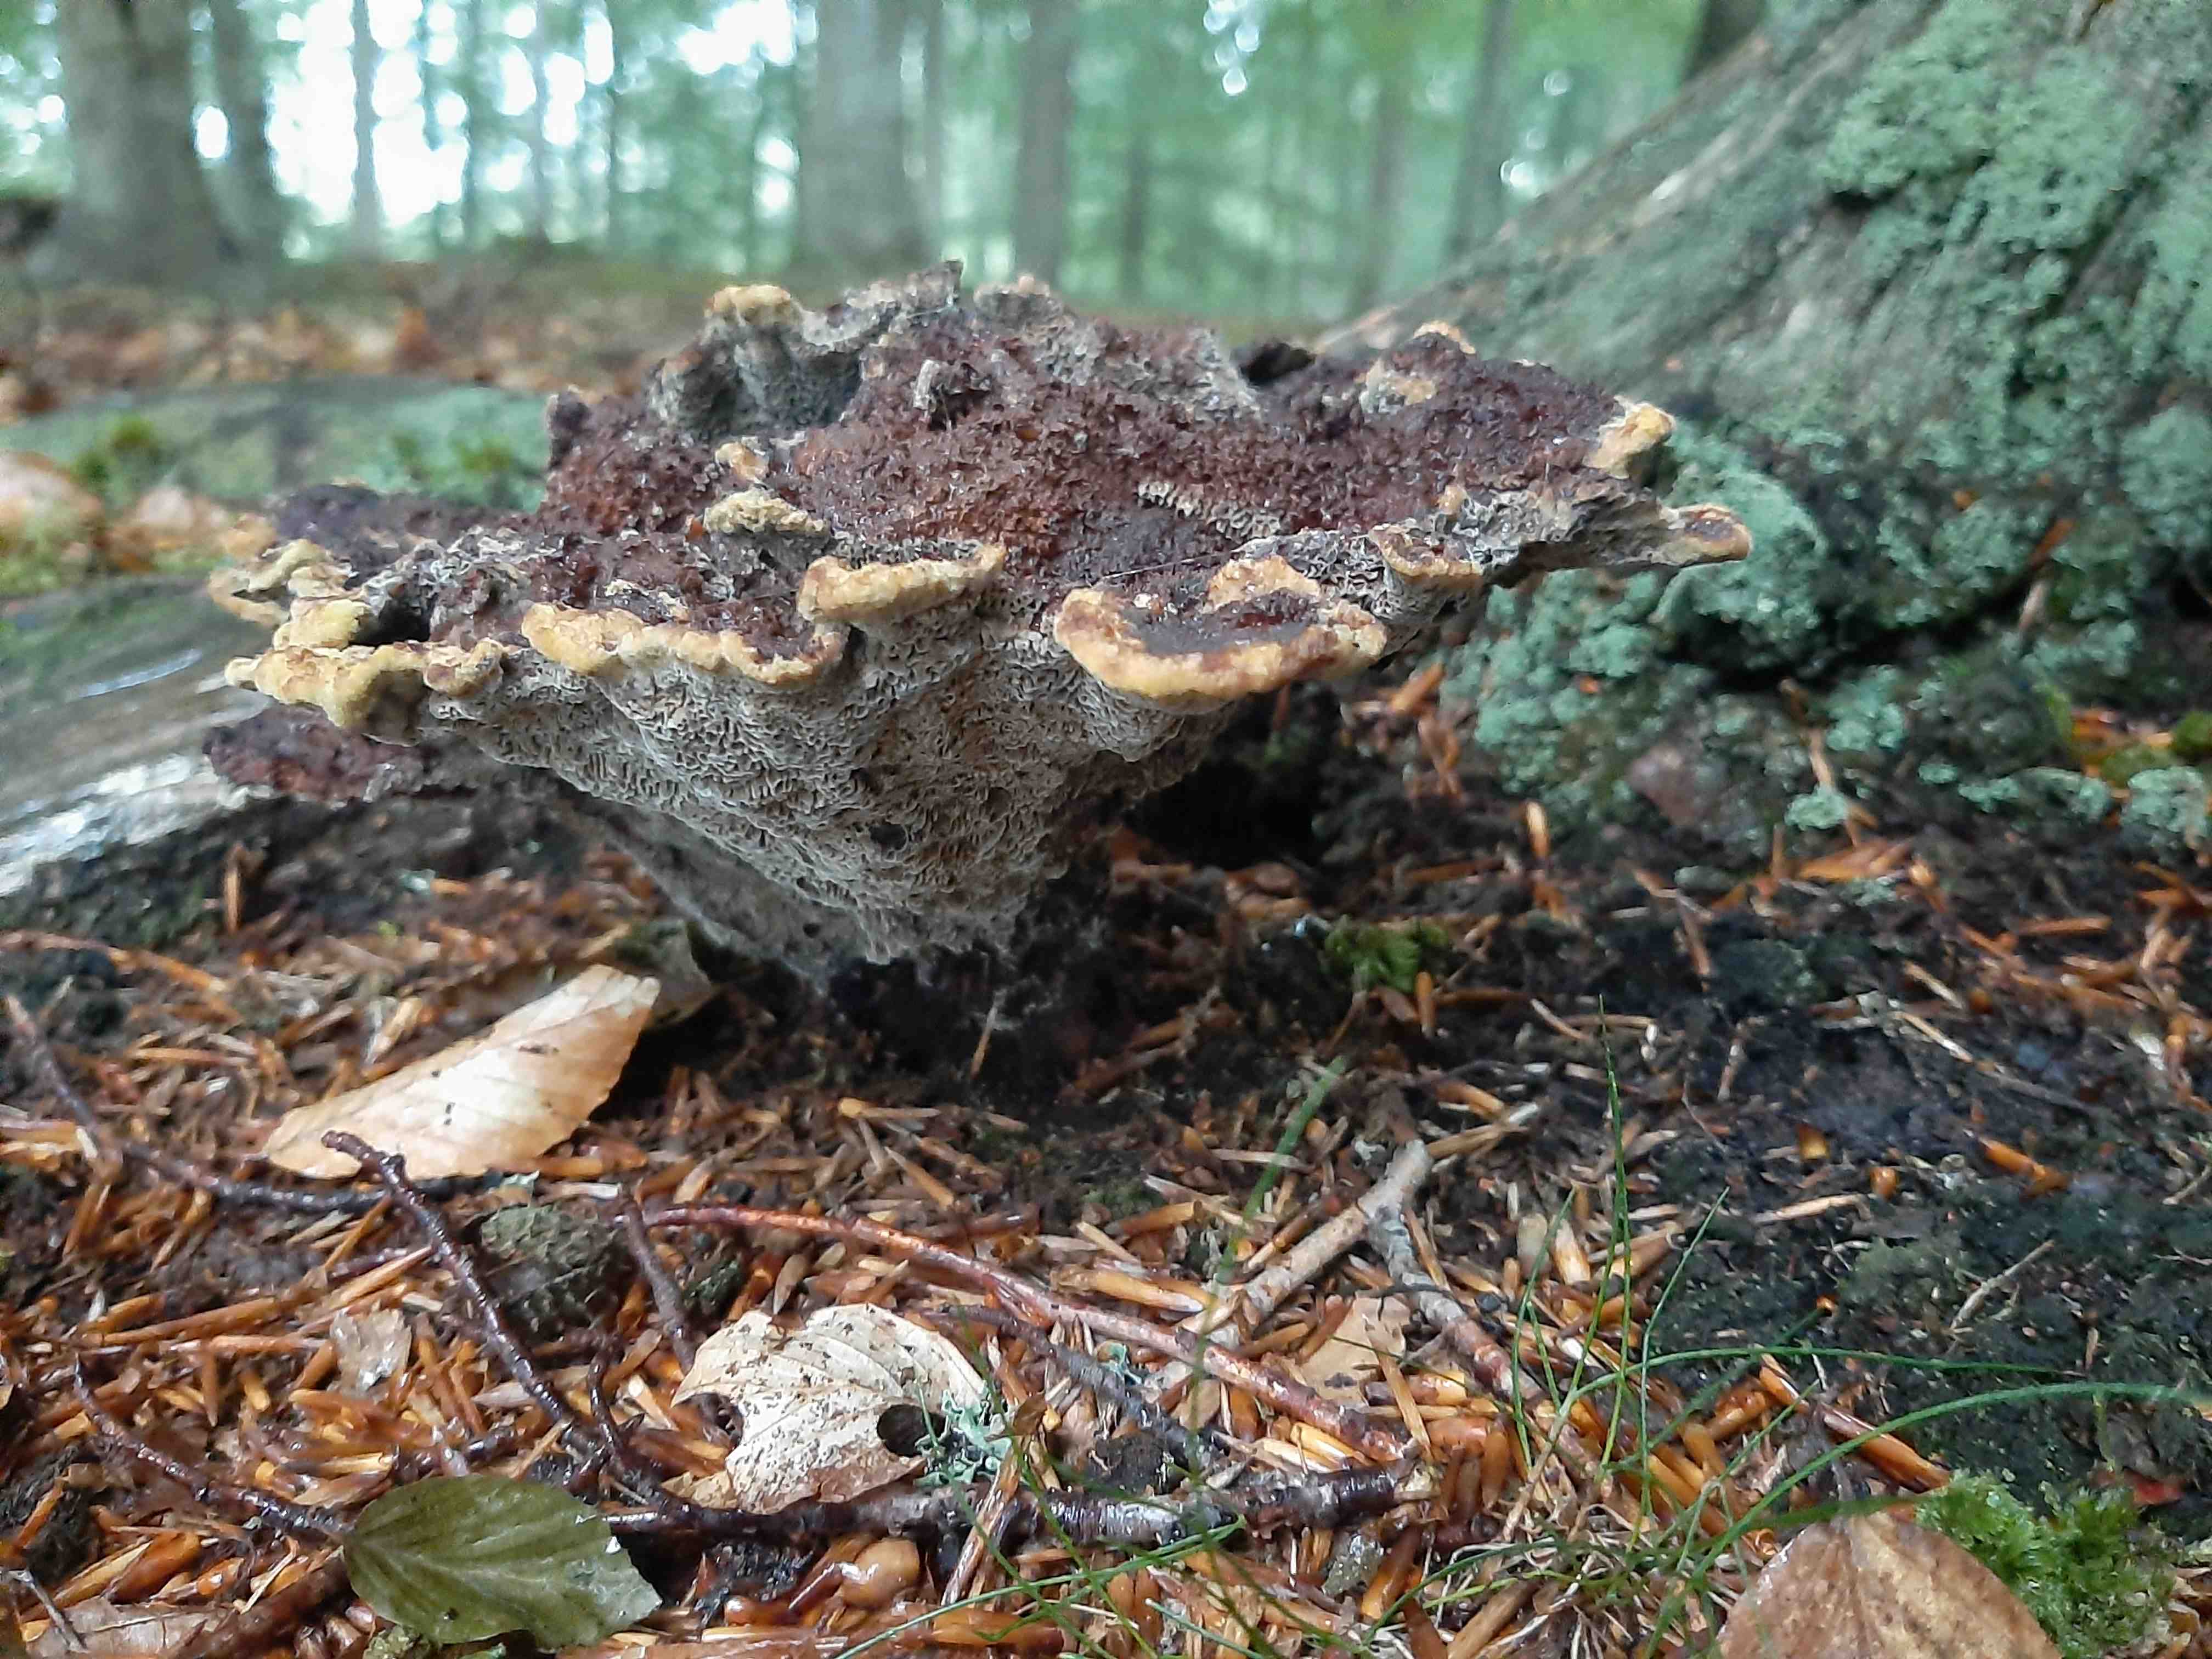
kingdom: Fungi
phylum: Basidiomycota
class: Agaricomycetes
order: Polyporales
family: Laetiporaceae
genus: Phaeolus
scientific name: Phaeolus schweinitzii
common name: brunporesvamp
